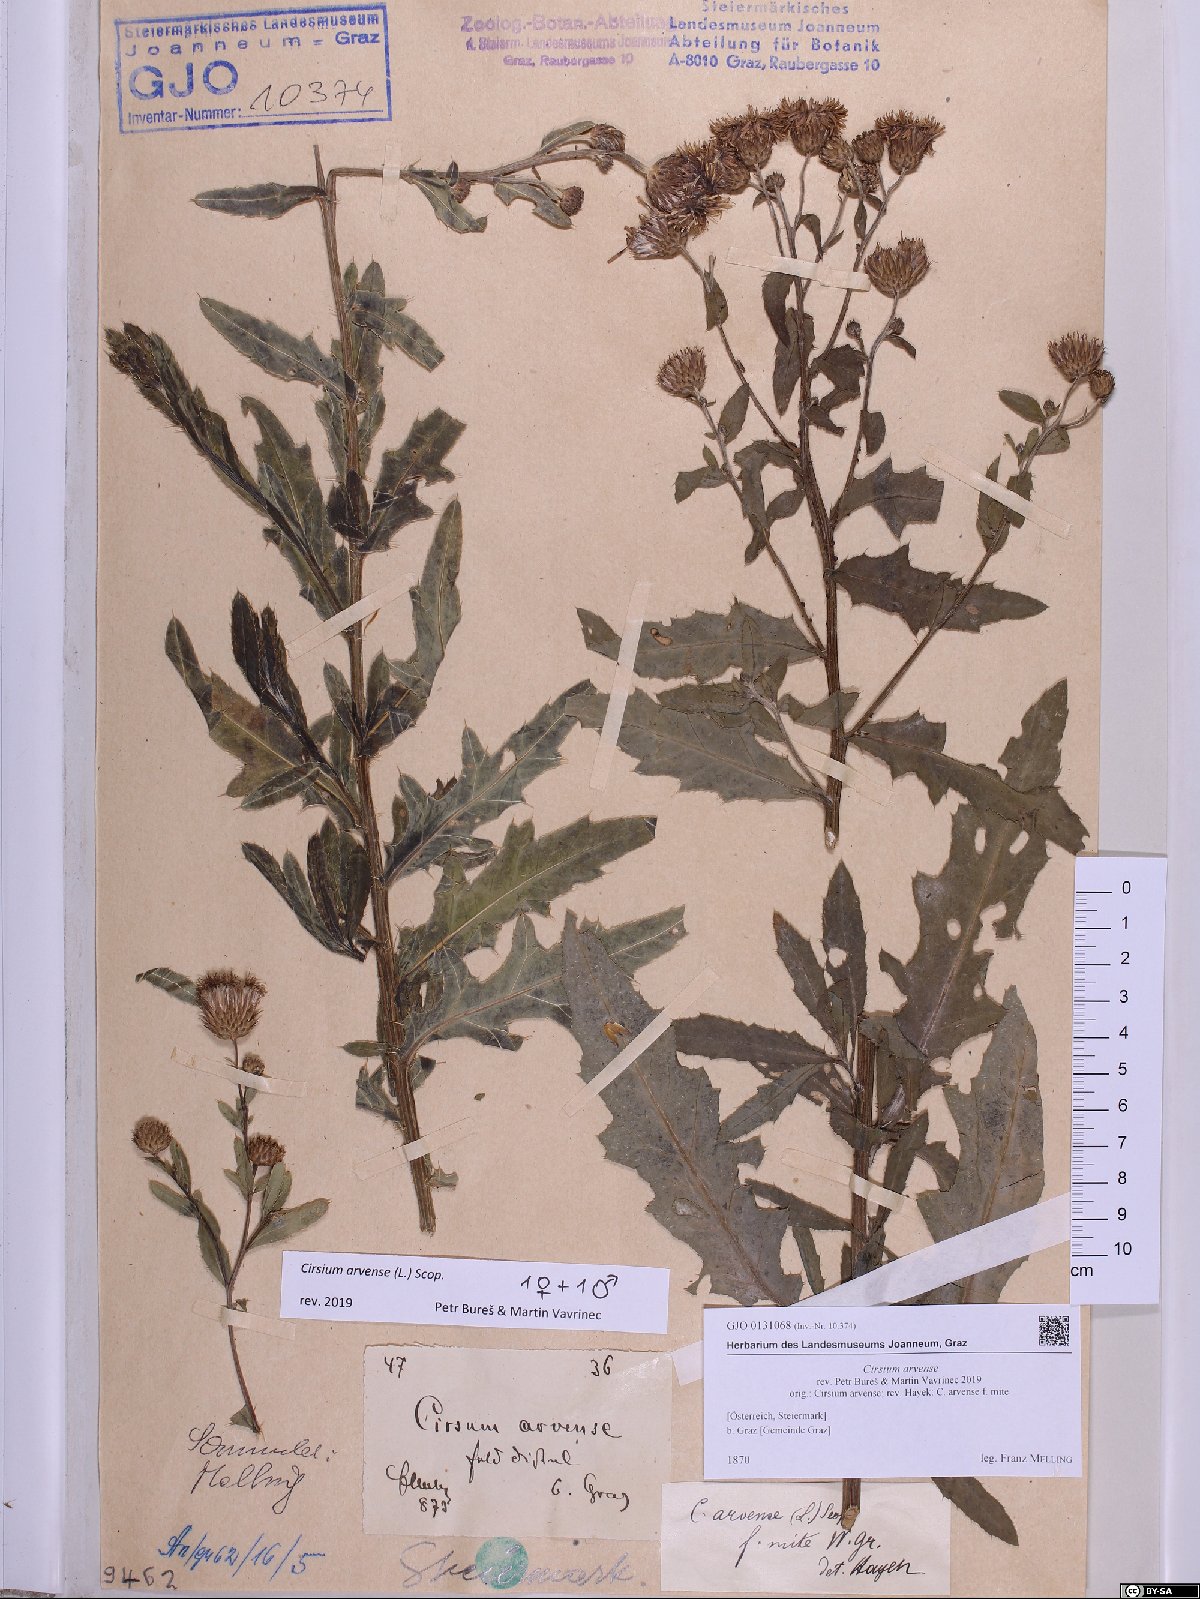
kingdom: Plantae
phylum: Tracheophyta
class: Magnoliopsida
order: Asterales
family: Asteraceae
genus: Cirsium
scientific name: Cirsium arvense
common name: Creeping thistle
